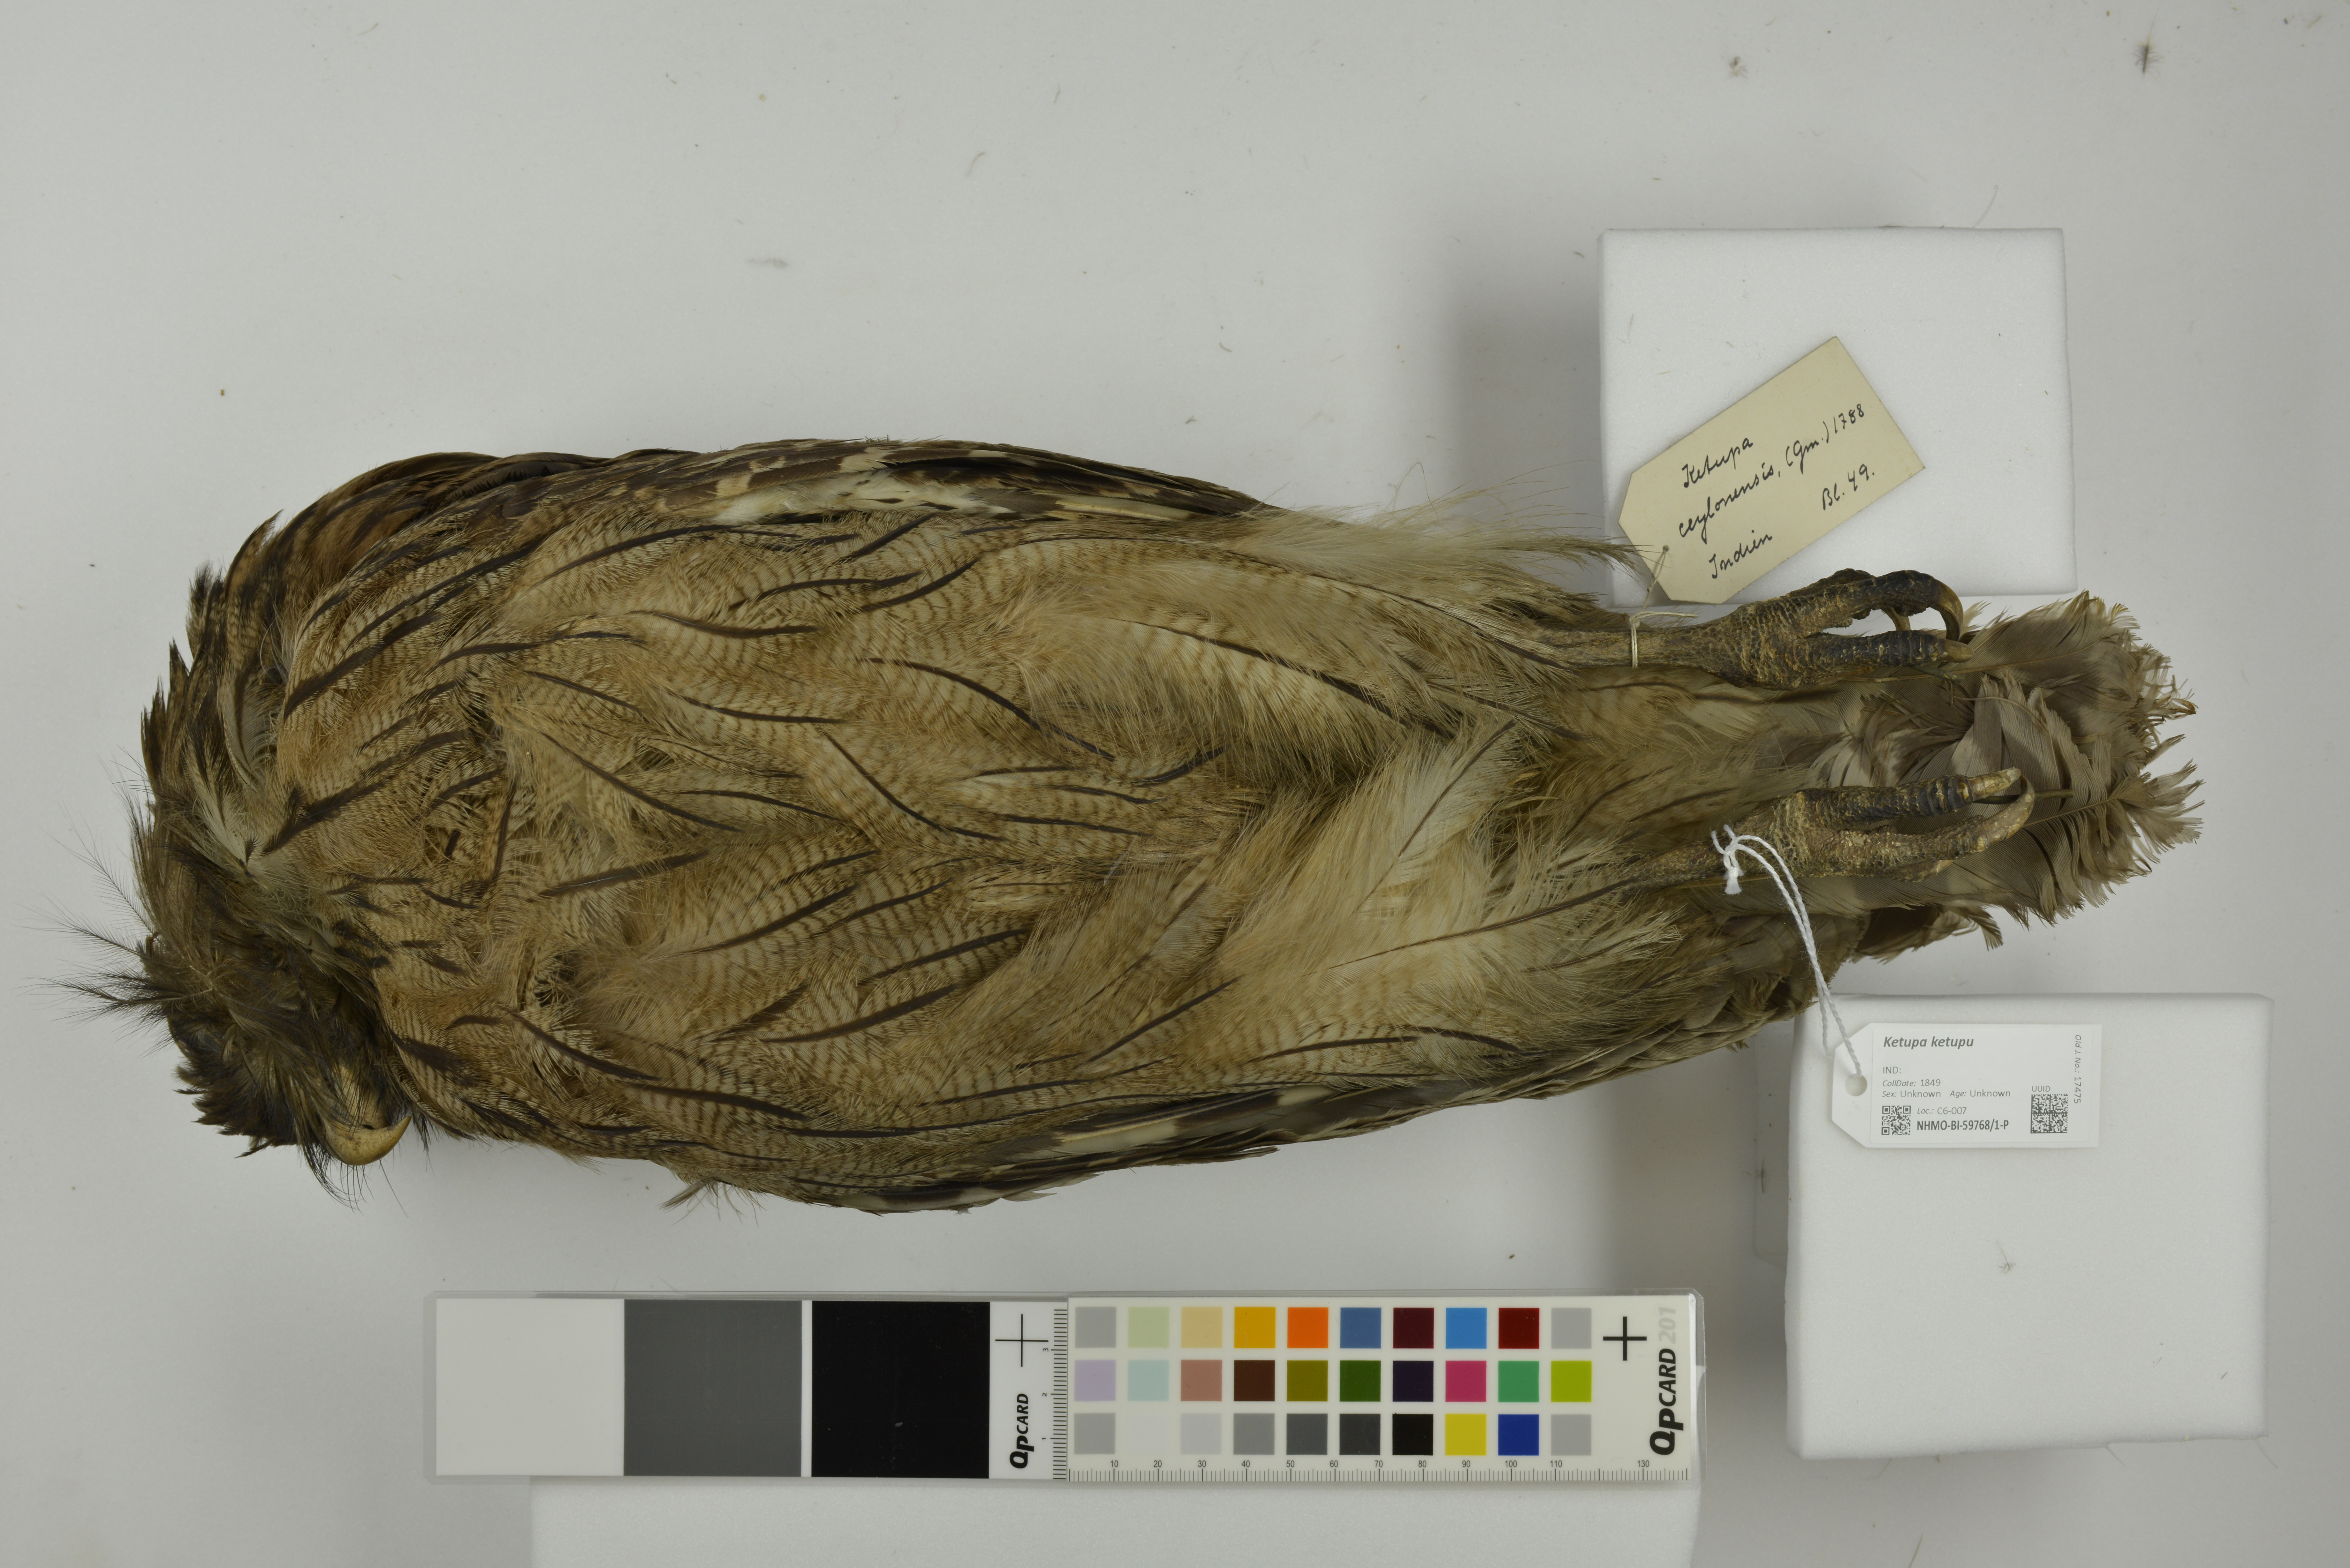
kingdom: Animalia
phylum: Chordata
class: Aves
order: Strigiformes
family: Strigidae
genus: Ketupa
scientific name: Ketupa ketupu
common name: Buffy fish-owl
